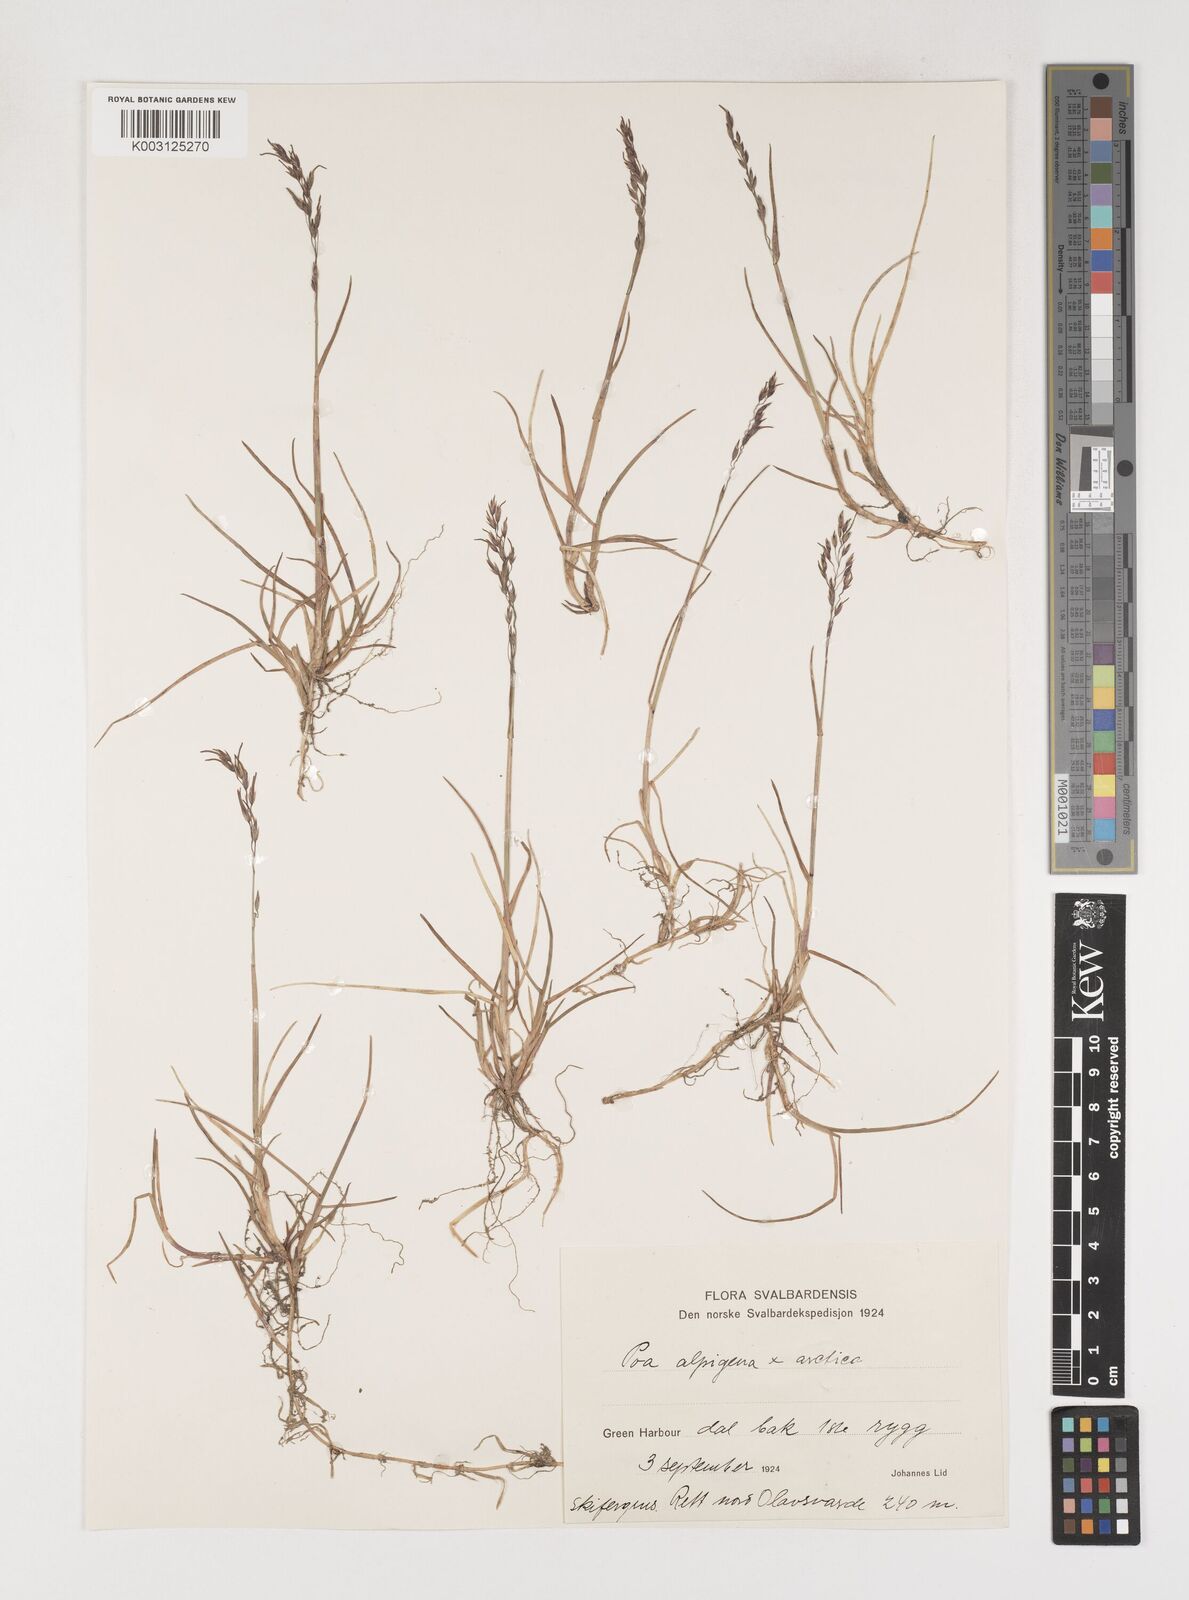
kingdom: Plantae
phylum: Tracheophyta
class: Liliopsida
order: Poales
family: Poaceae
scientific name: Poaceae
